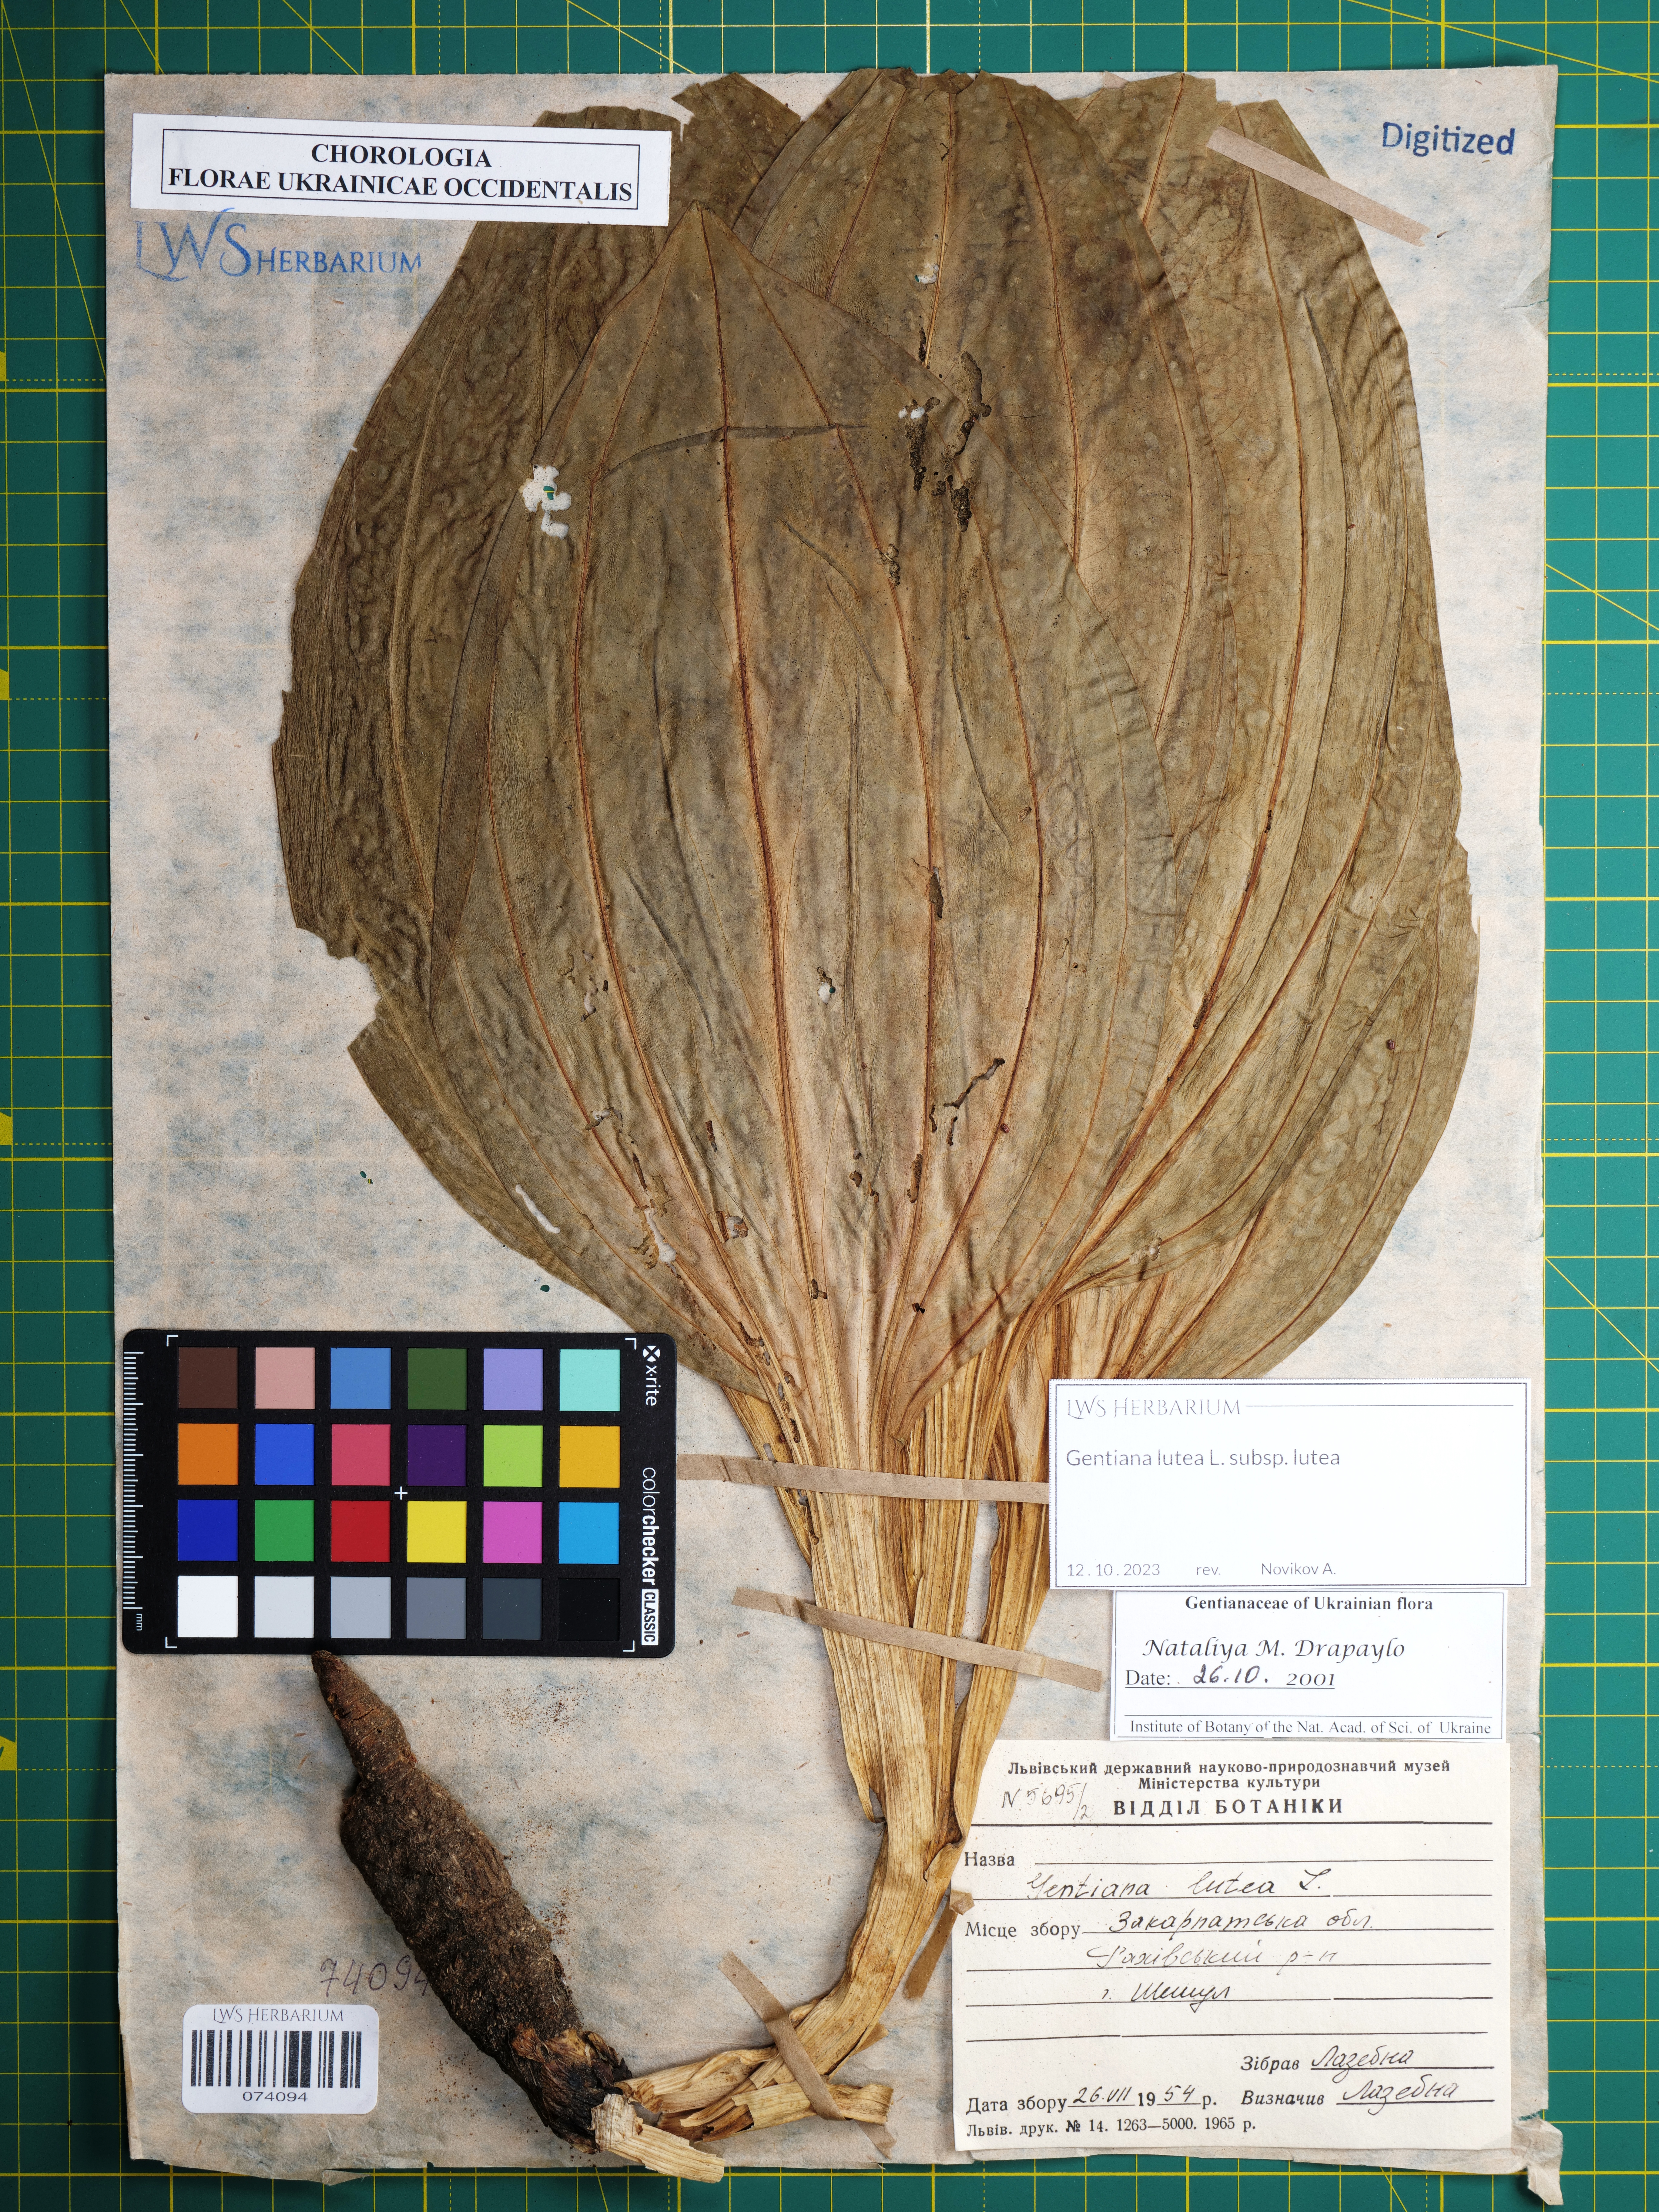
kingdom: Plantae
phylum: Tracheophyta
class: Magnoliopsida
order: Gentianales
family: Gentianaceae
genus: Gentiana
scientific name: Gentiana lutea
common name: Great yellow gentian
